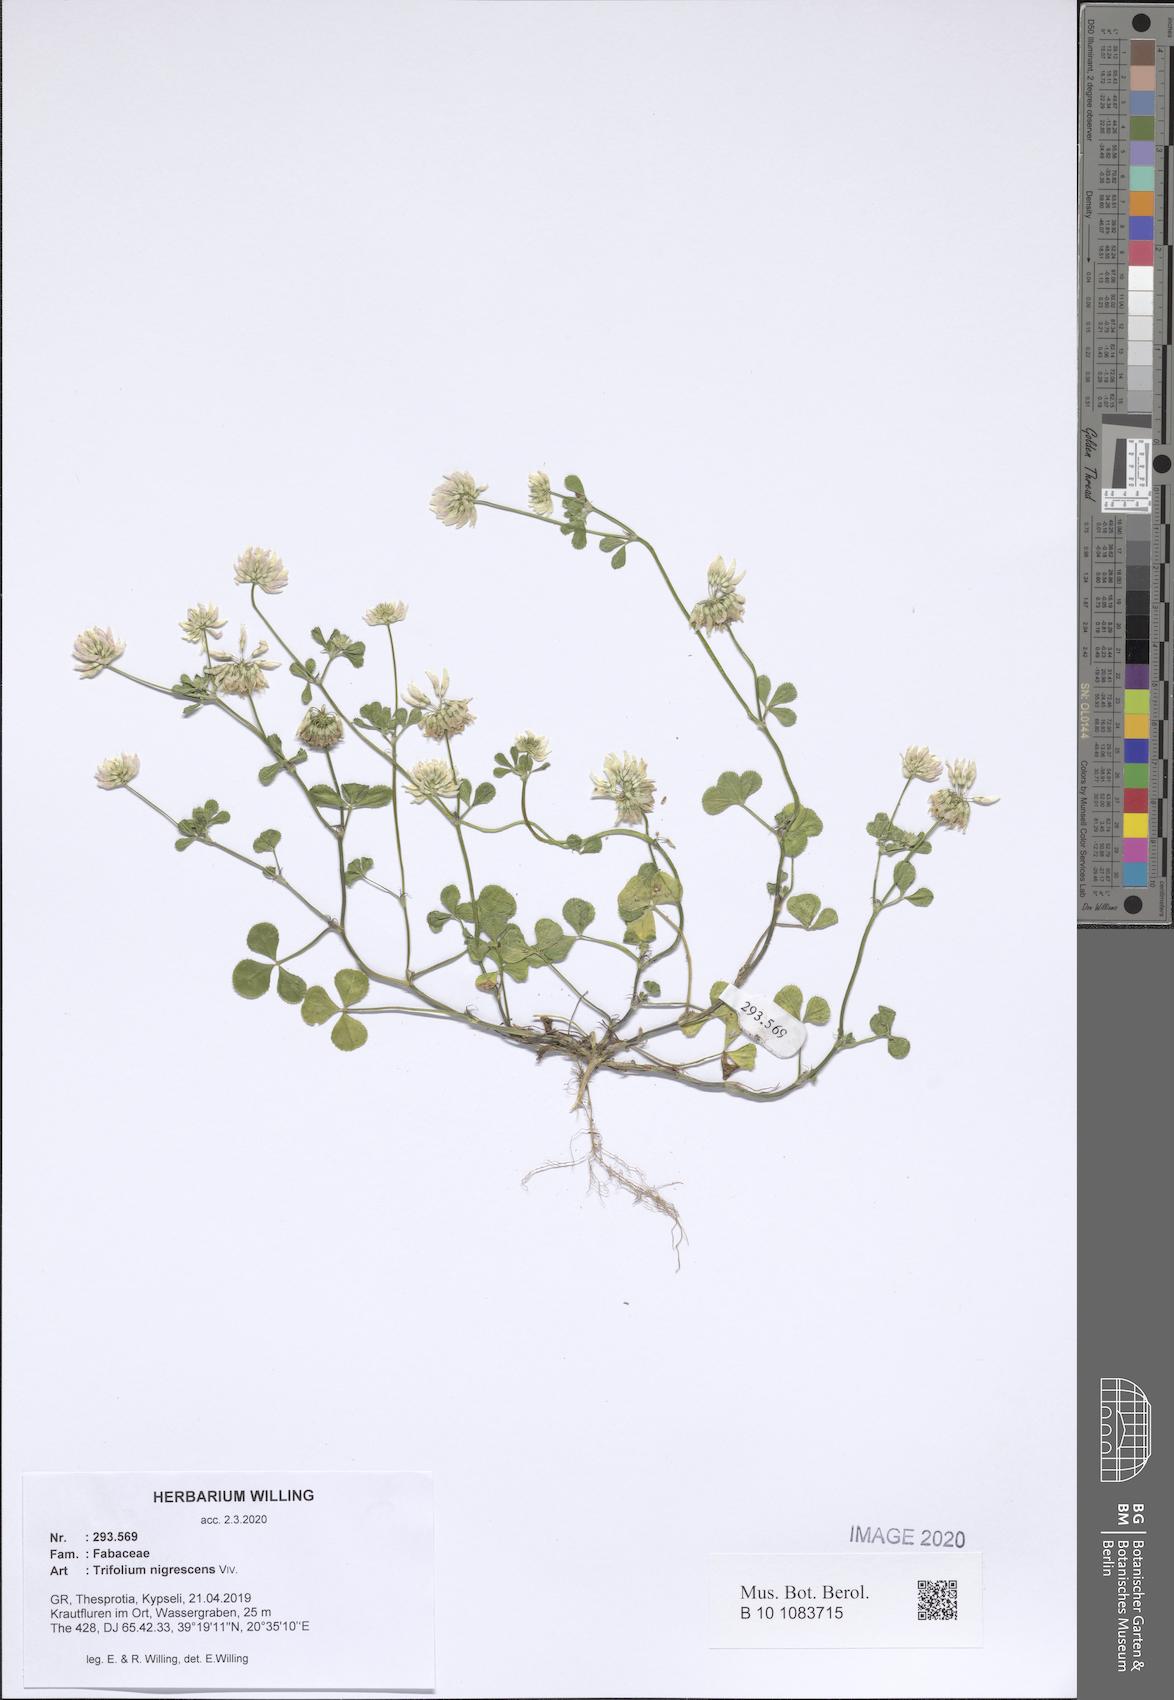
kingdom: Plantae
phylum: Tracheophyta
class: Magnoliopsida
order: Fabales
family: Fabaceae
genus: Trifolium
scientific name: Trifolium nigrescens
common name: Small white clover
